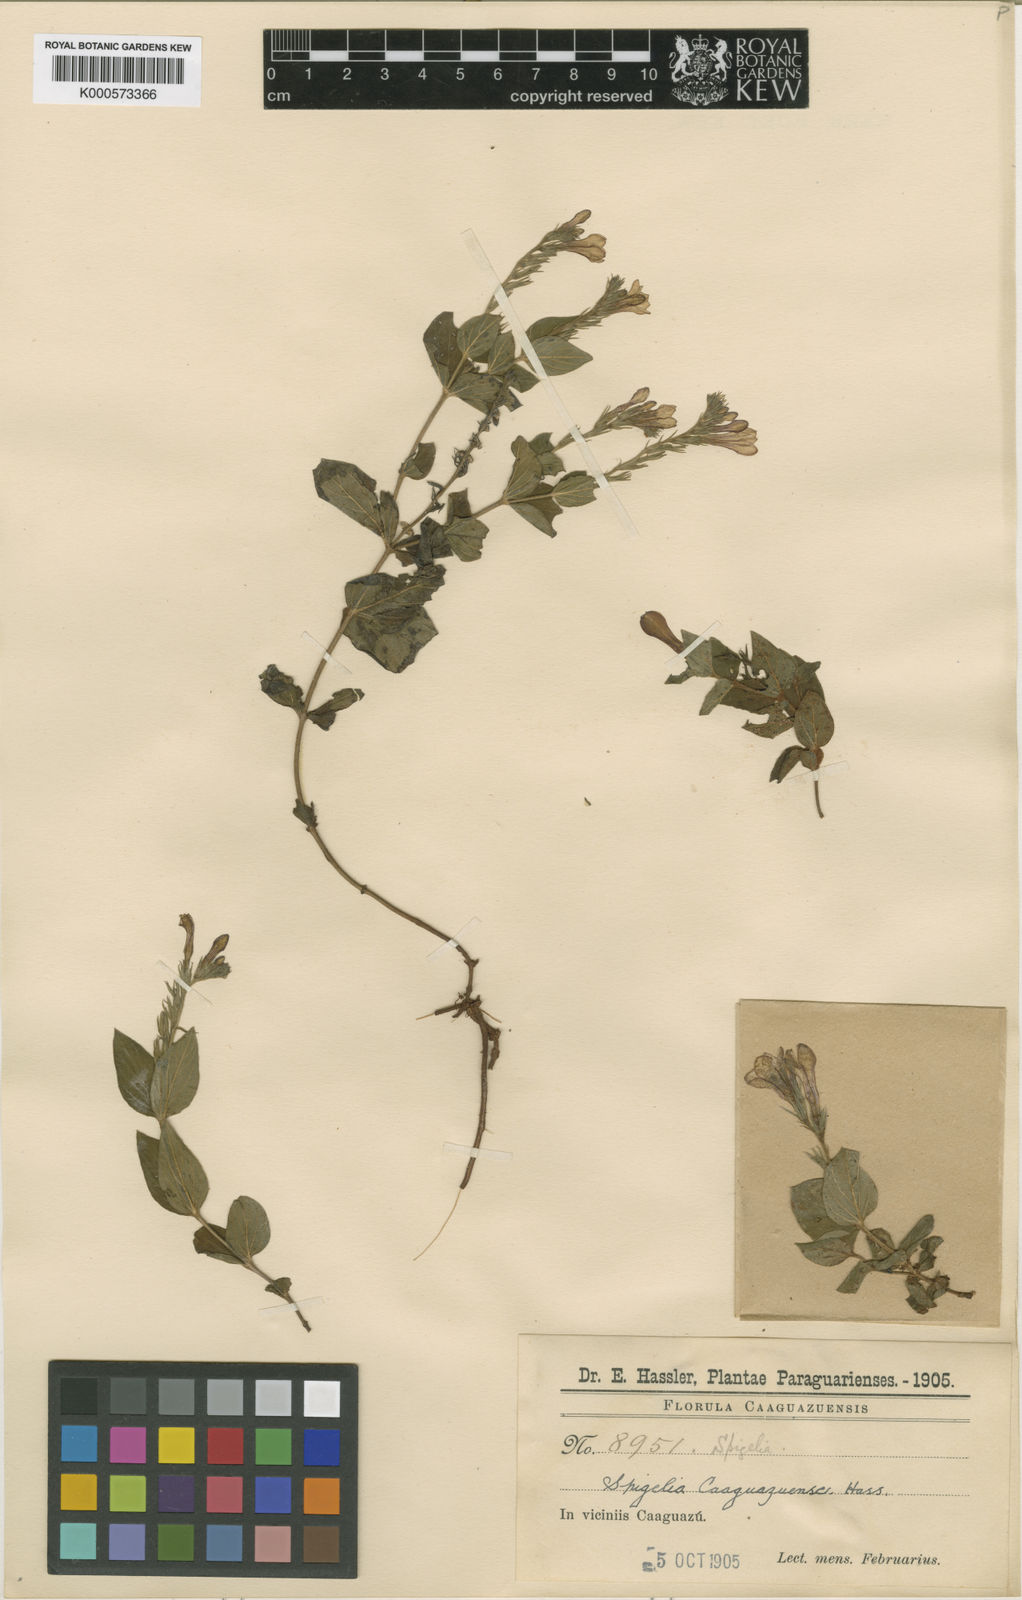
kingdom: Plantae
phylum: Tracheophyta
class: Magnoliopsida
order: Gentianales
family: Loganiaceae
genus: Spigelia
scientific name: Spigelia
